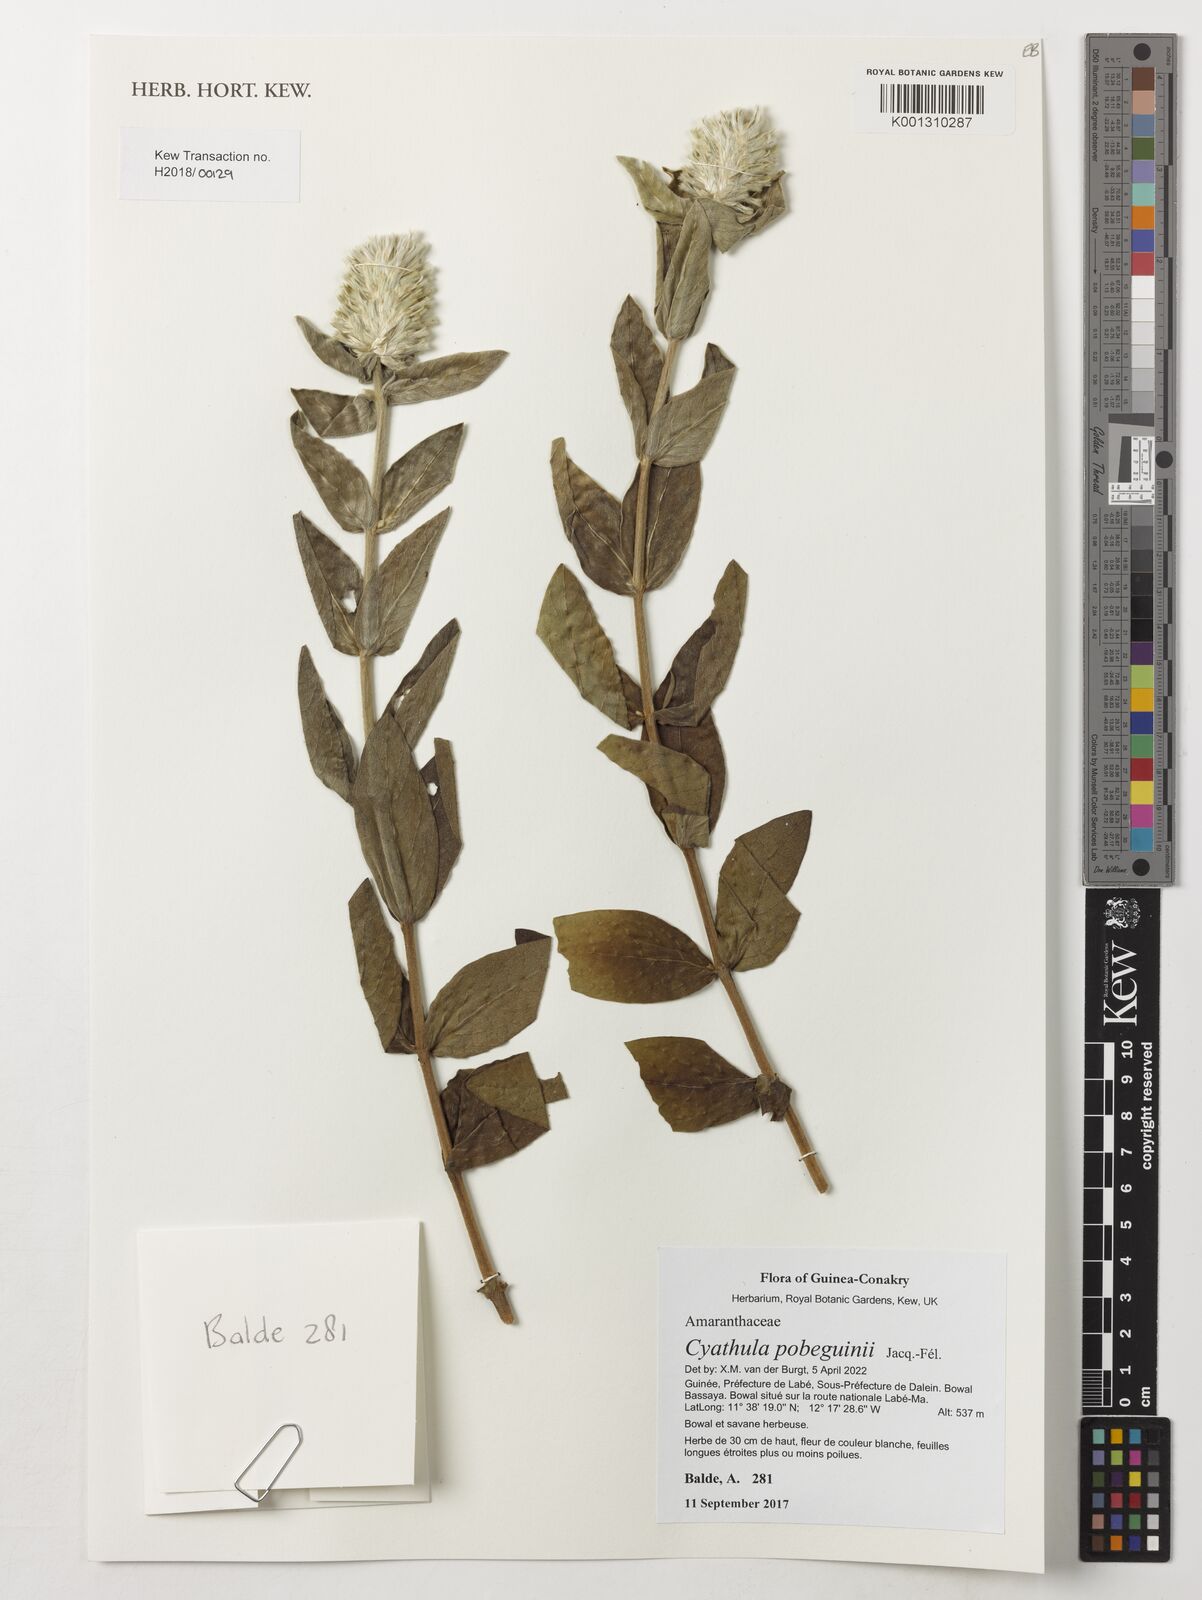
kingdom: Plantae
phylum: Tracheophyta
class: Magnoliopsida
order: Caryophyllales
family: Amaranthaceae
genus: Cyathula
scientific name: Cyathula pobeguinii
